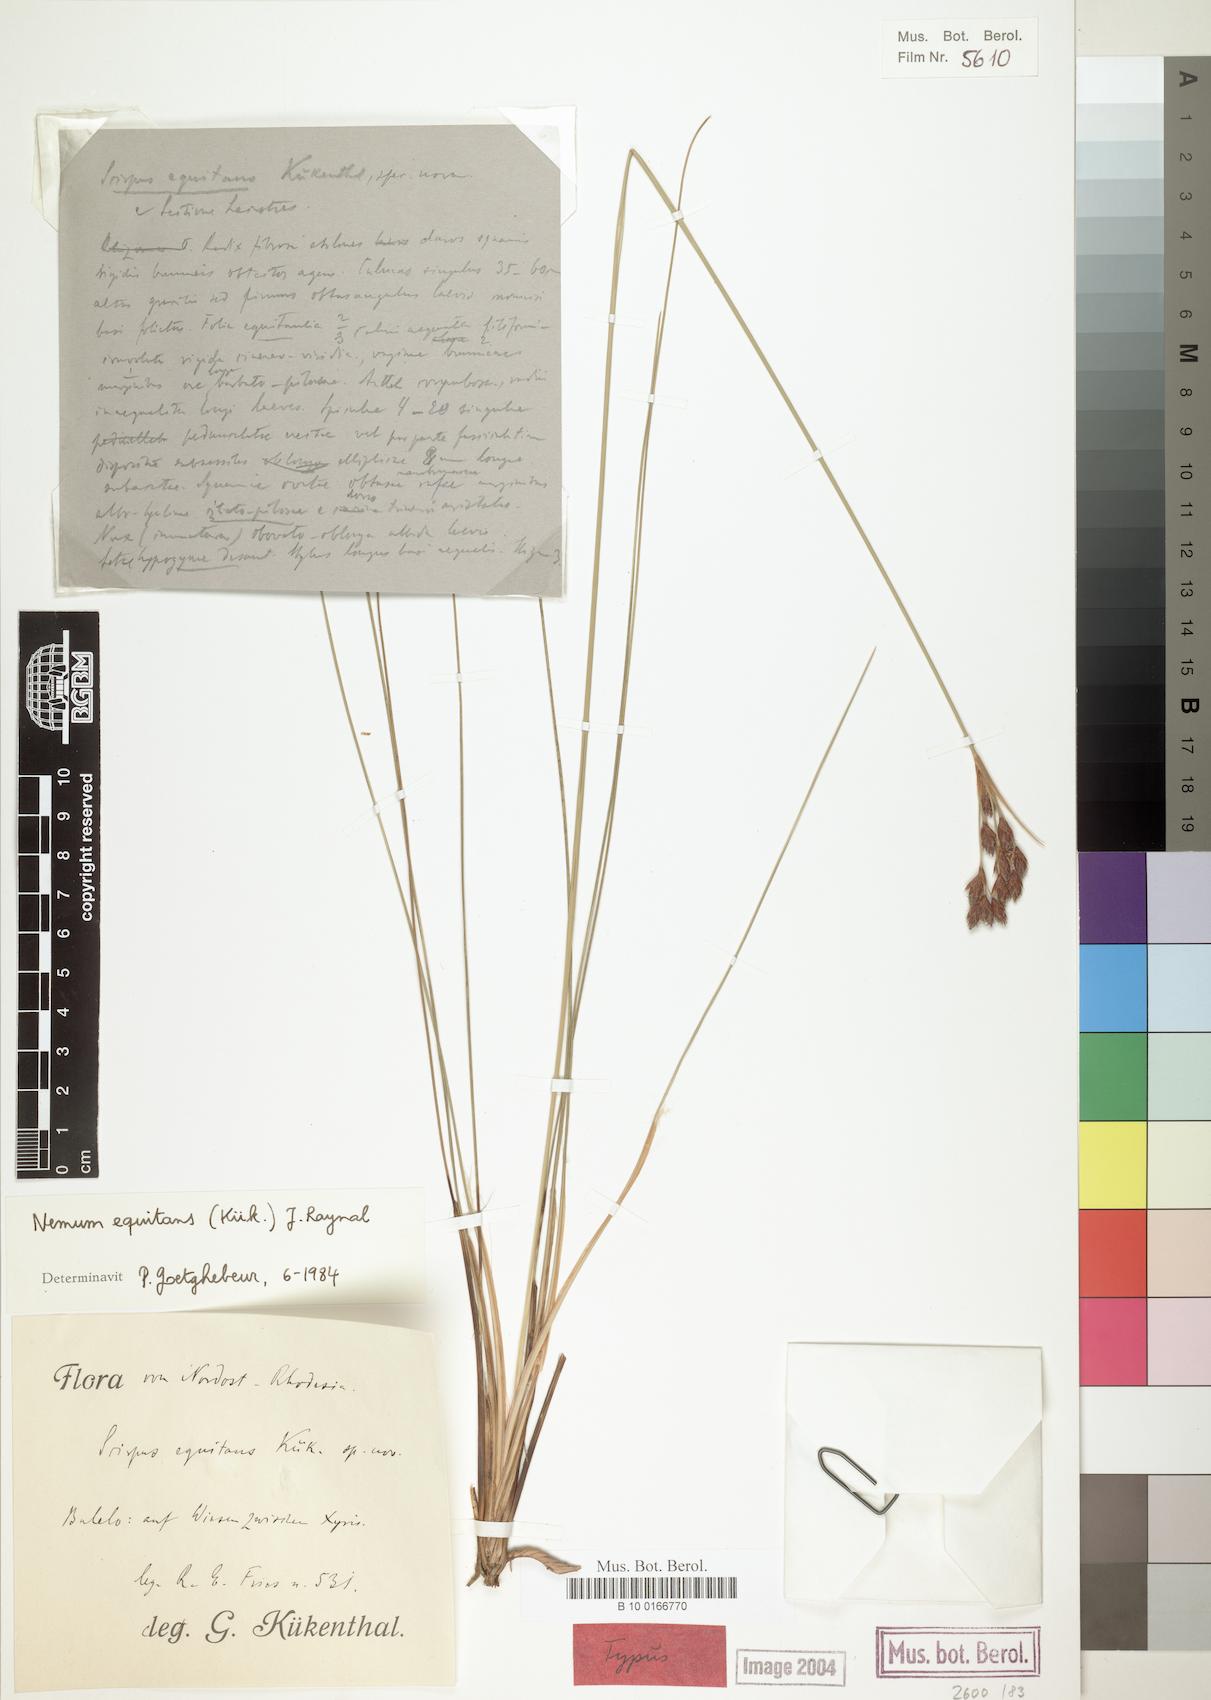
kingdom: Plantae
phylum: Tracheophyta
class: Liliopsida
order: Poales
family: Cyperaceae
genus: Bulbostylis
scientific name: Bulbostylis equitans
